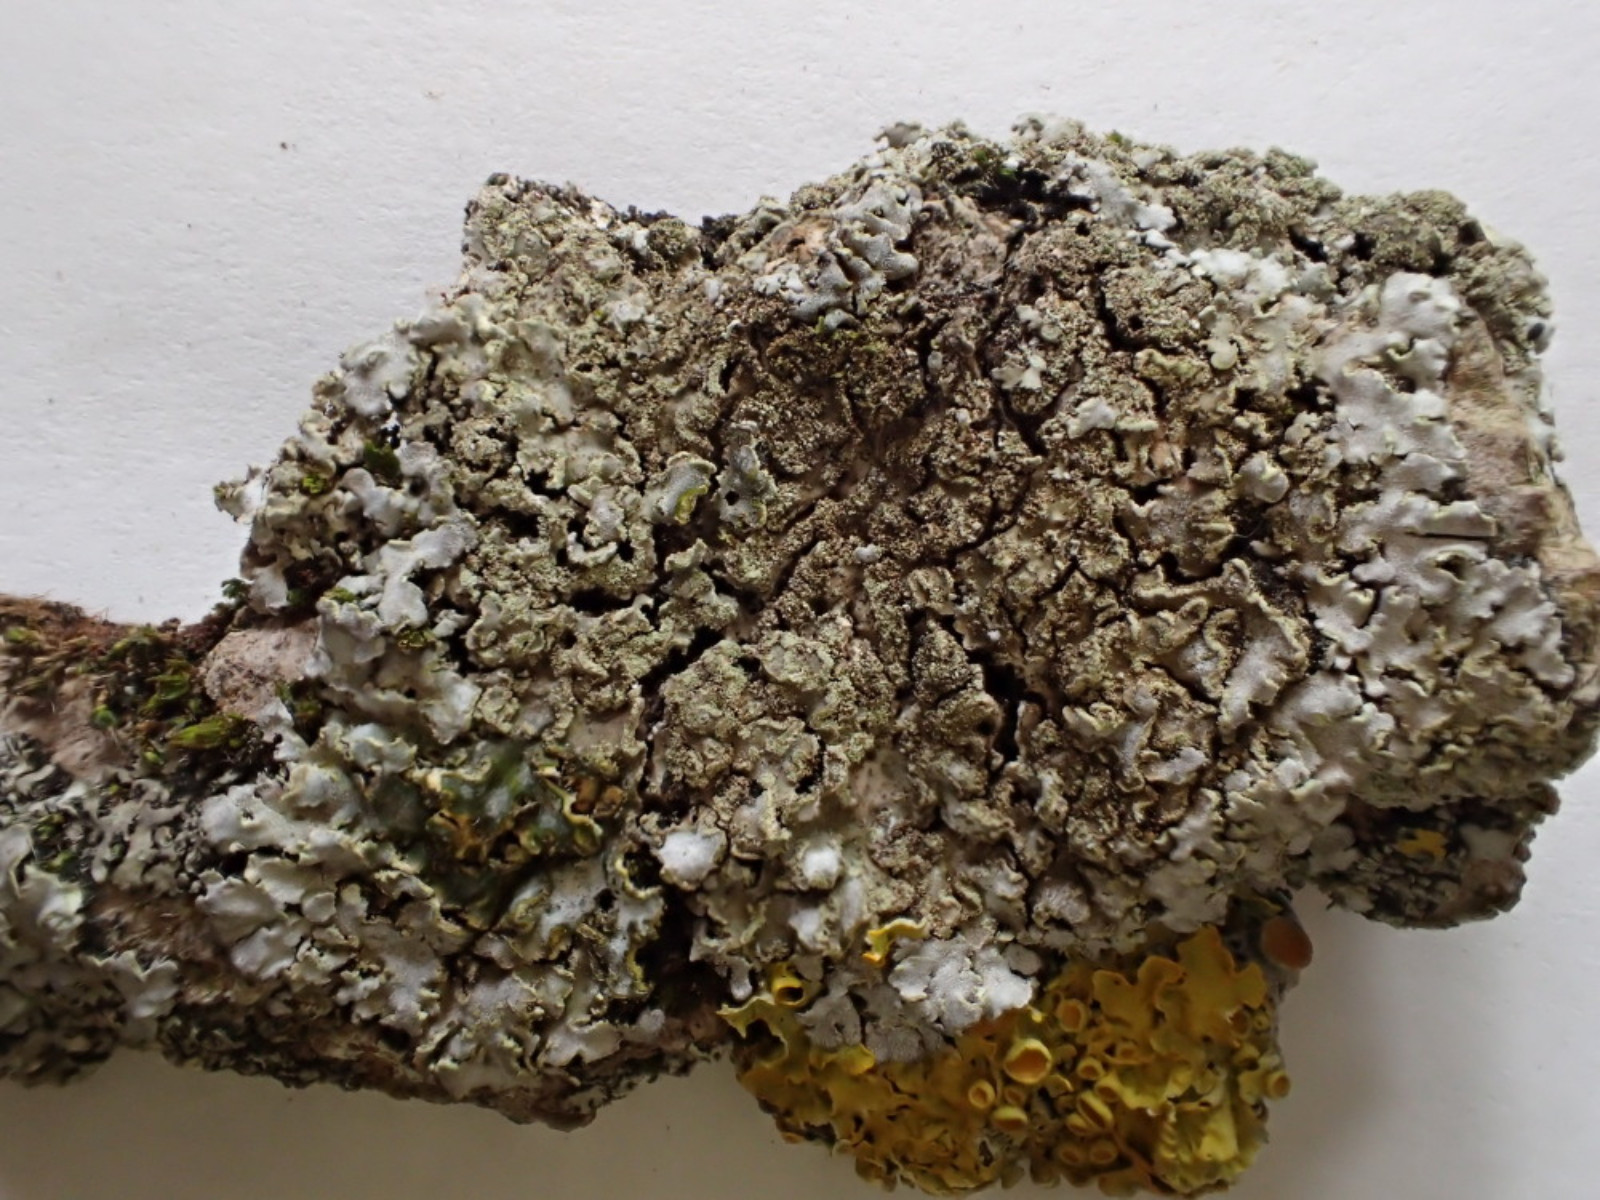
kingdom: Fungi
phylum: Ascomycota
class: Lecanoromycetes
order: Caliciales
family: Physciaceae
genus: Physconia
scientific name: Physconia enteroxantha
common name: grynet dugrosetlav
